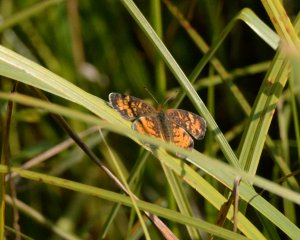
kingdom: Animalia
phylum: Arthropoda
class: Insecta
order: Lepidoptera
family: Nymphalidae
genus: Phyciodes
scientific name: Phyciodes tharos
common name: Northern Crescent
